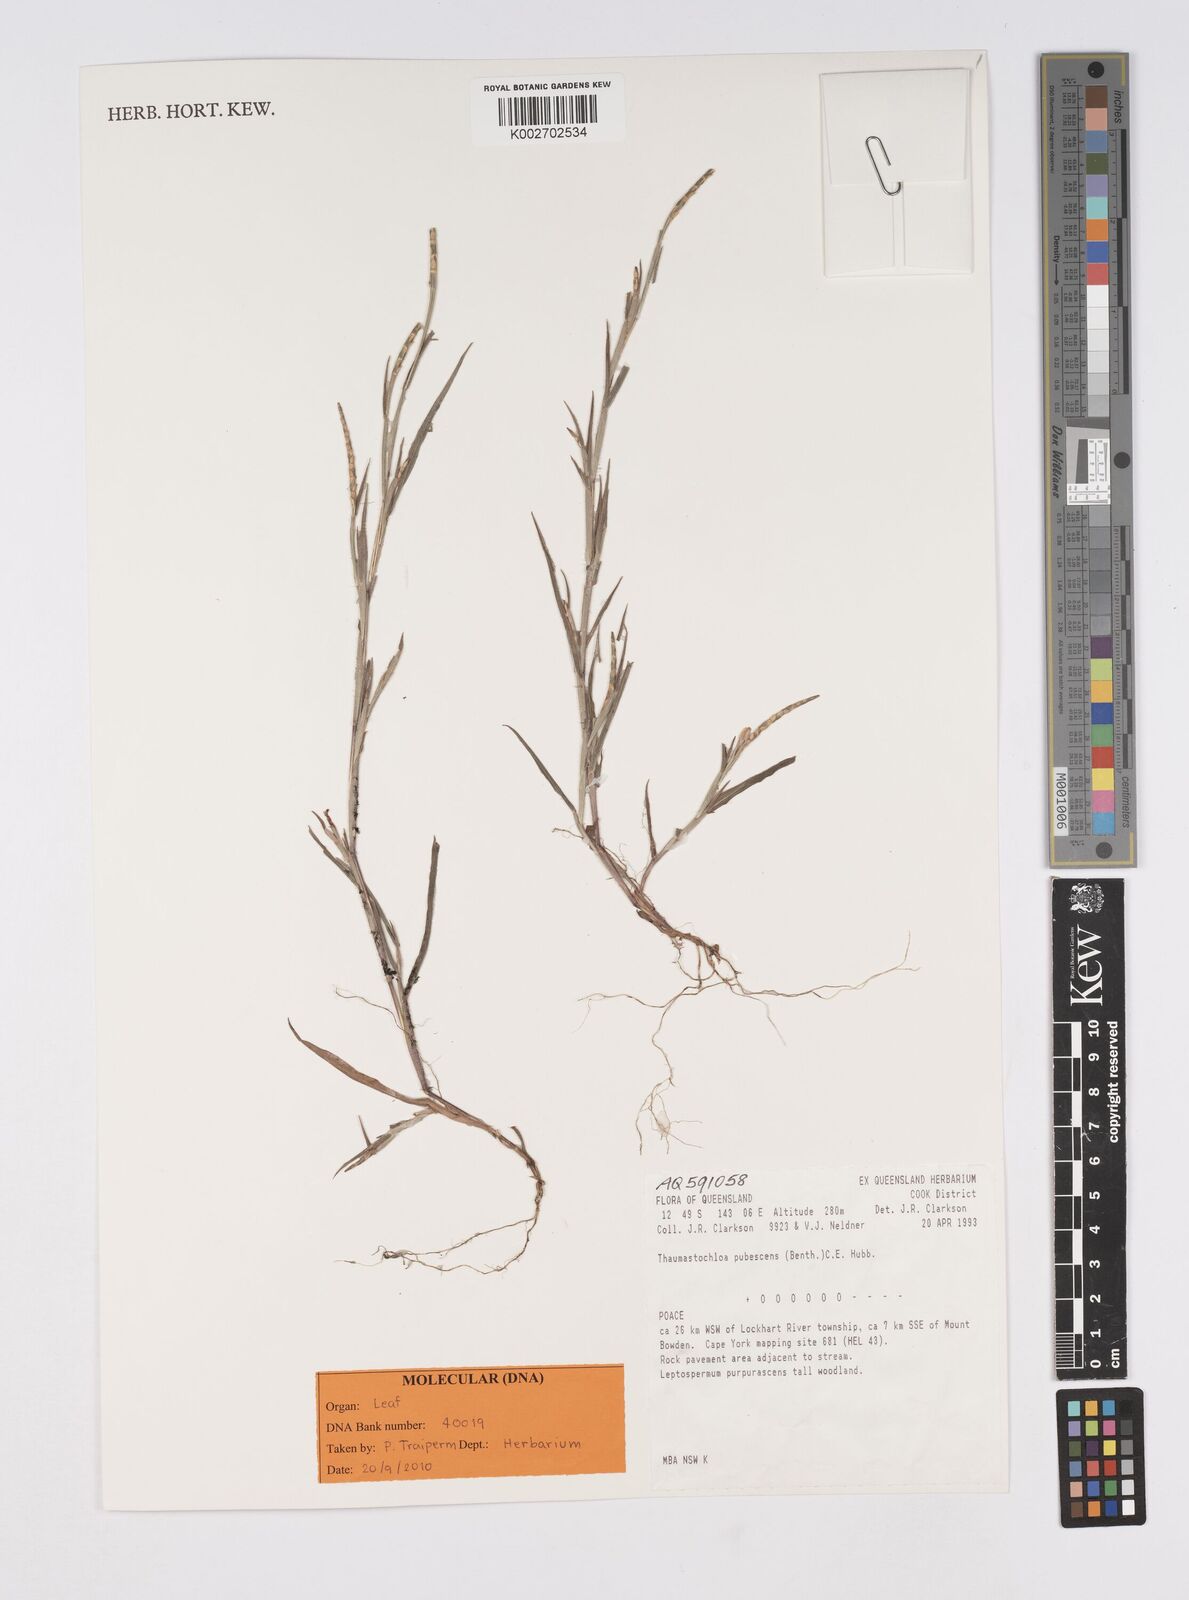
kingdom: Plantae
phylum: Tracheophyta
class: Liliopsida
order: Poales
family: Poaceae
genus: Thaumastochloa
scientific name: Thaumastochloa pubescens
